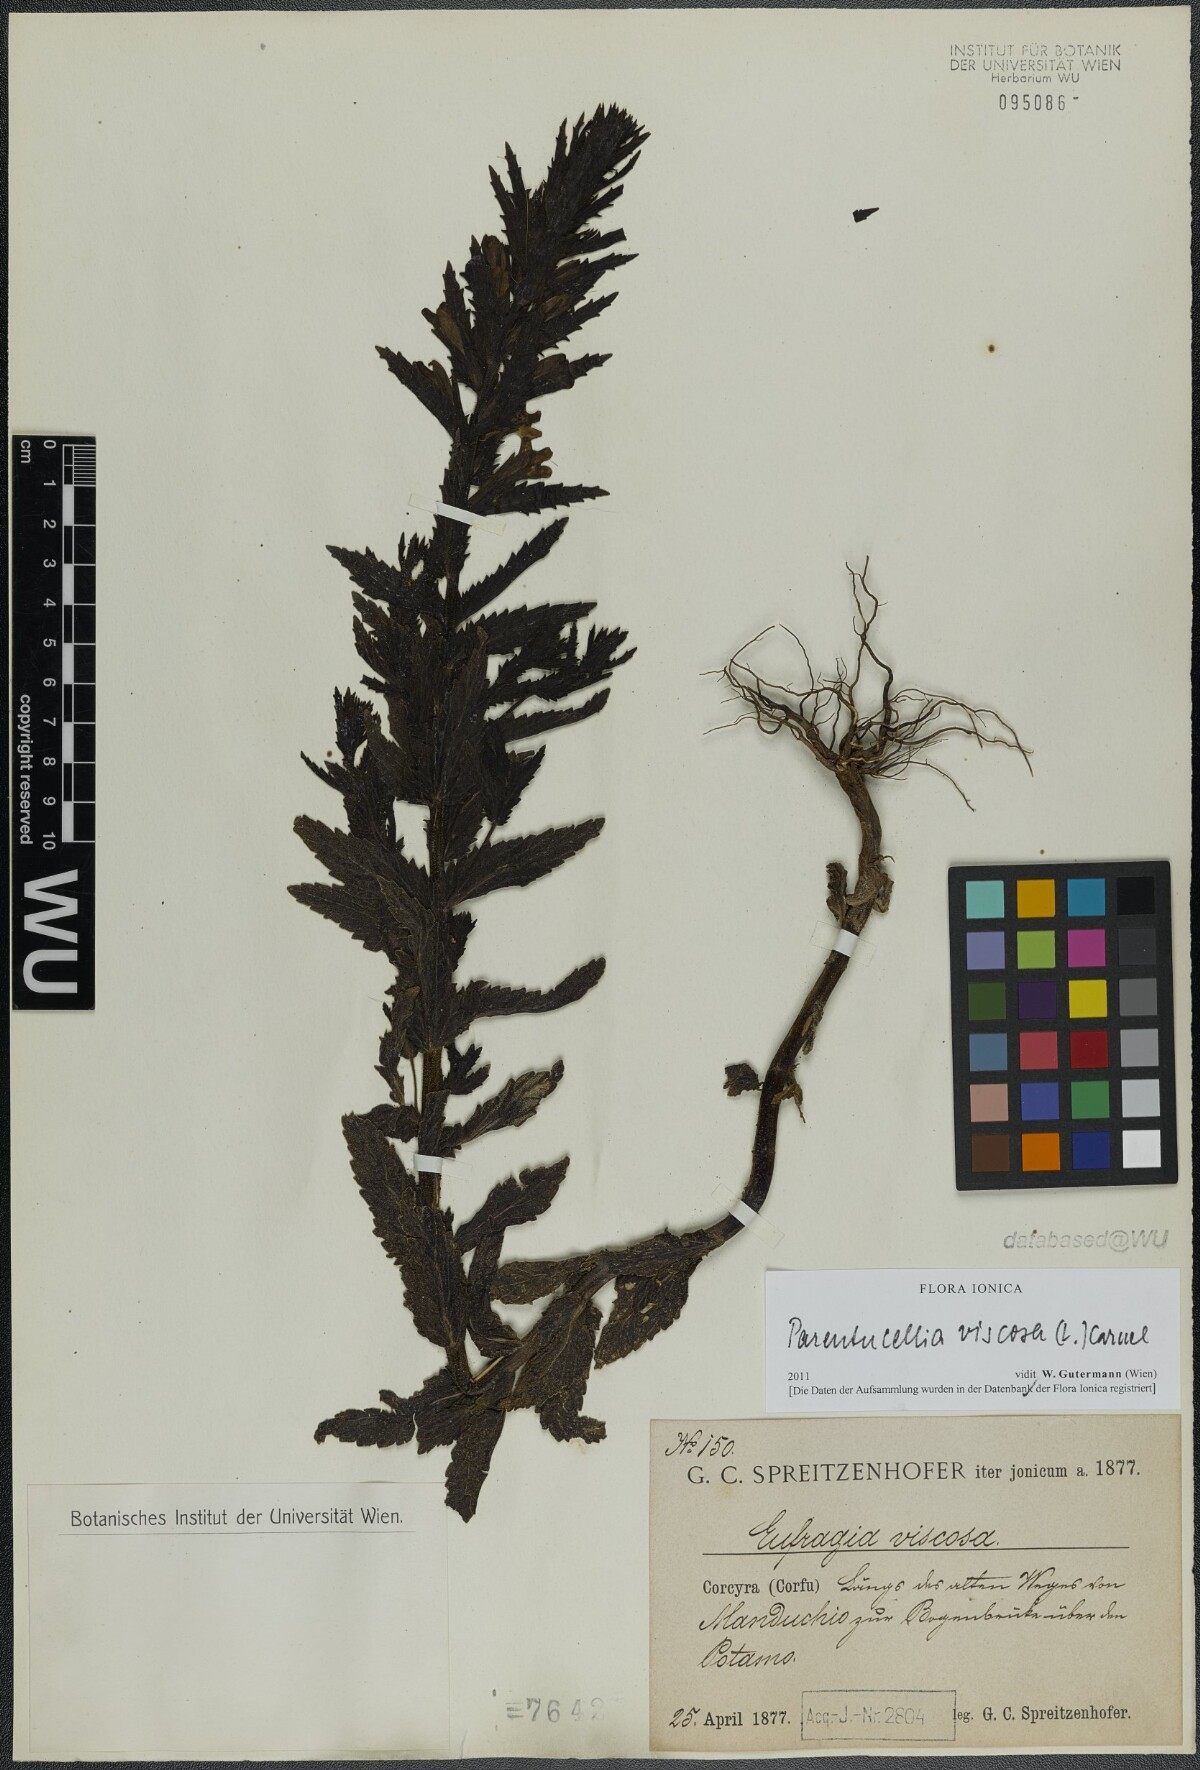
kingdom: Plantae
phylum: Tracheophyta
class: Magnoliopsida
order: Lamiales
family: Orobanchaceae
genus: Bellardia
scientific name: Bellardia viscosa
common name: Sticky parentucellia
